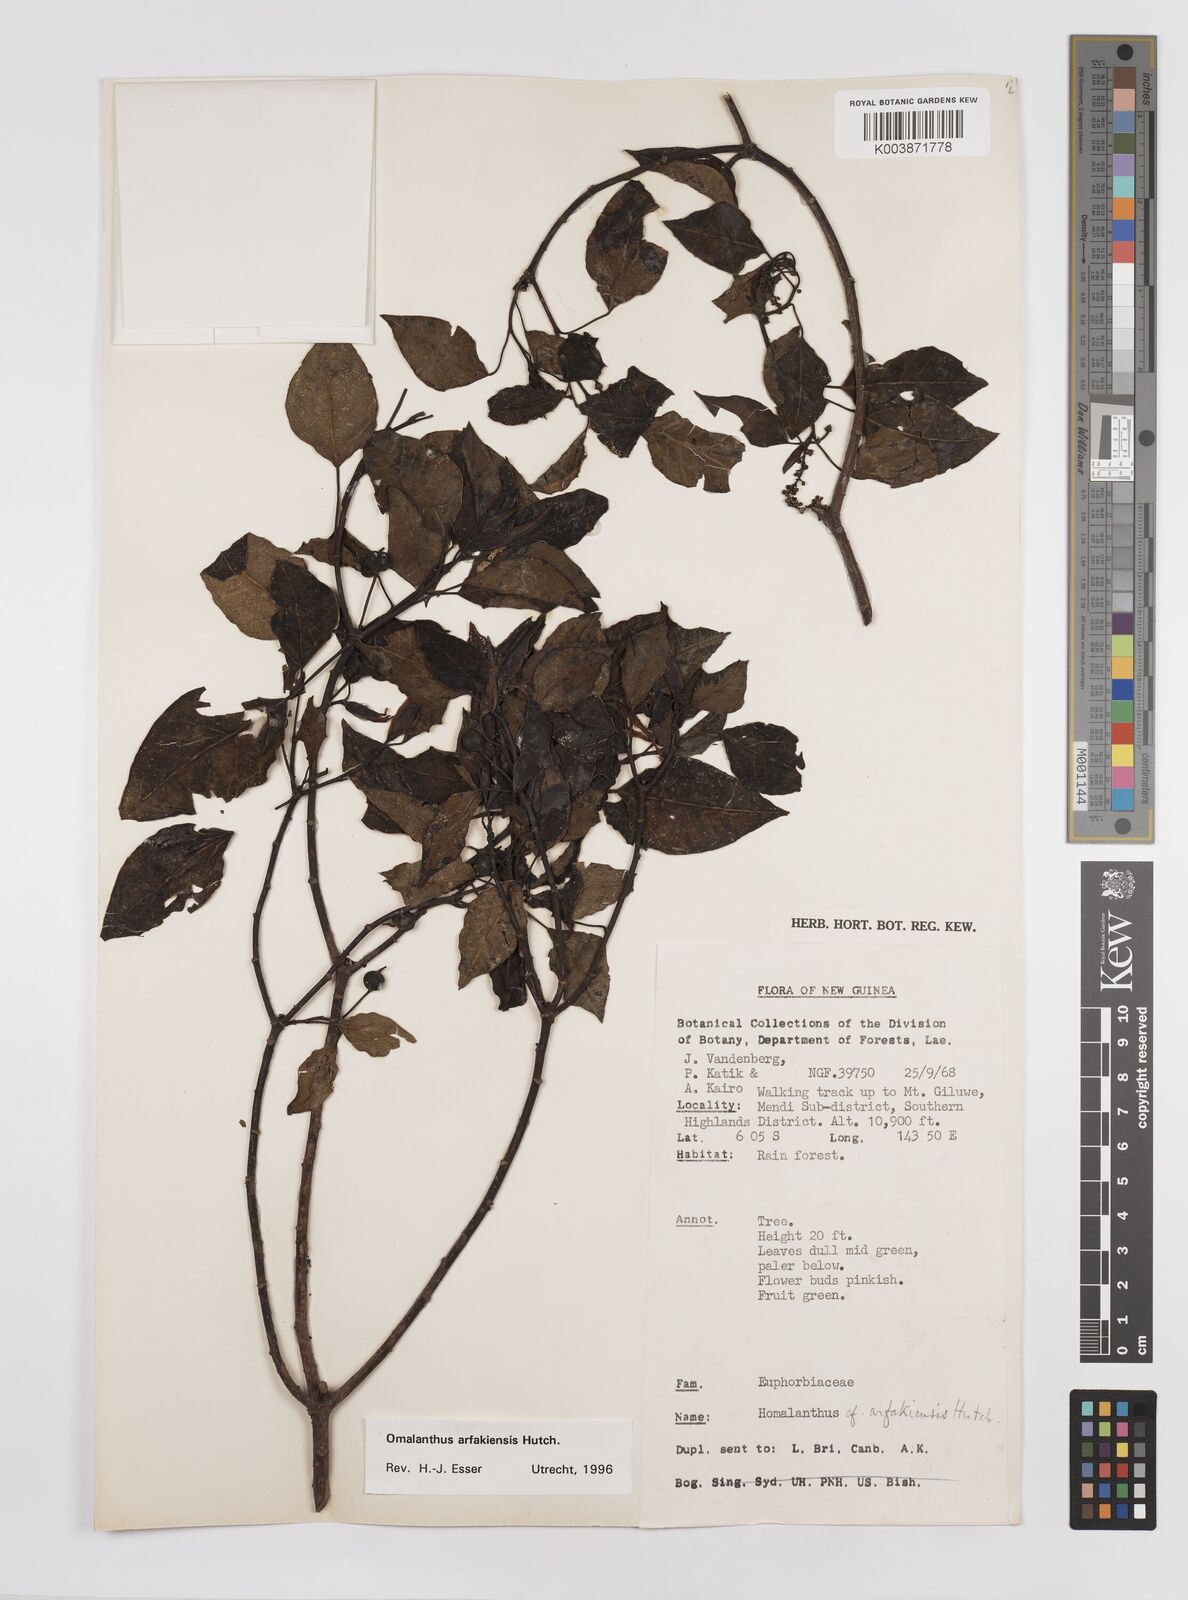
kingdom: Plantae
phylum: Tracheophyta
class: Magnoliopsida
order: Malpighiales
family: Euphorbiaceae
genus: Homalanthus
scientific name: Homalanthus arfakiensis
